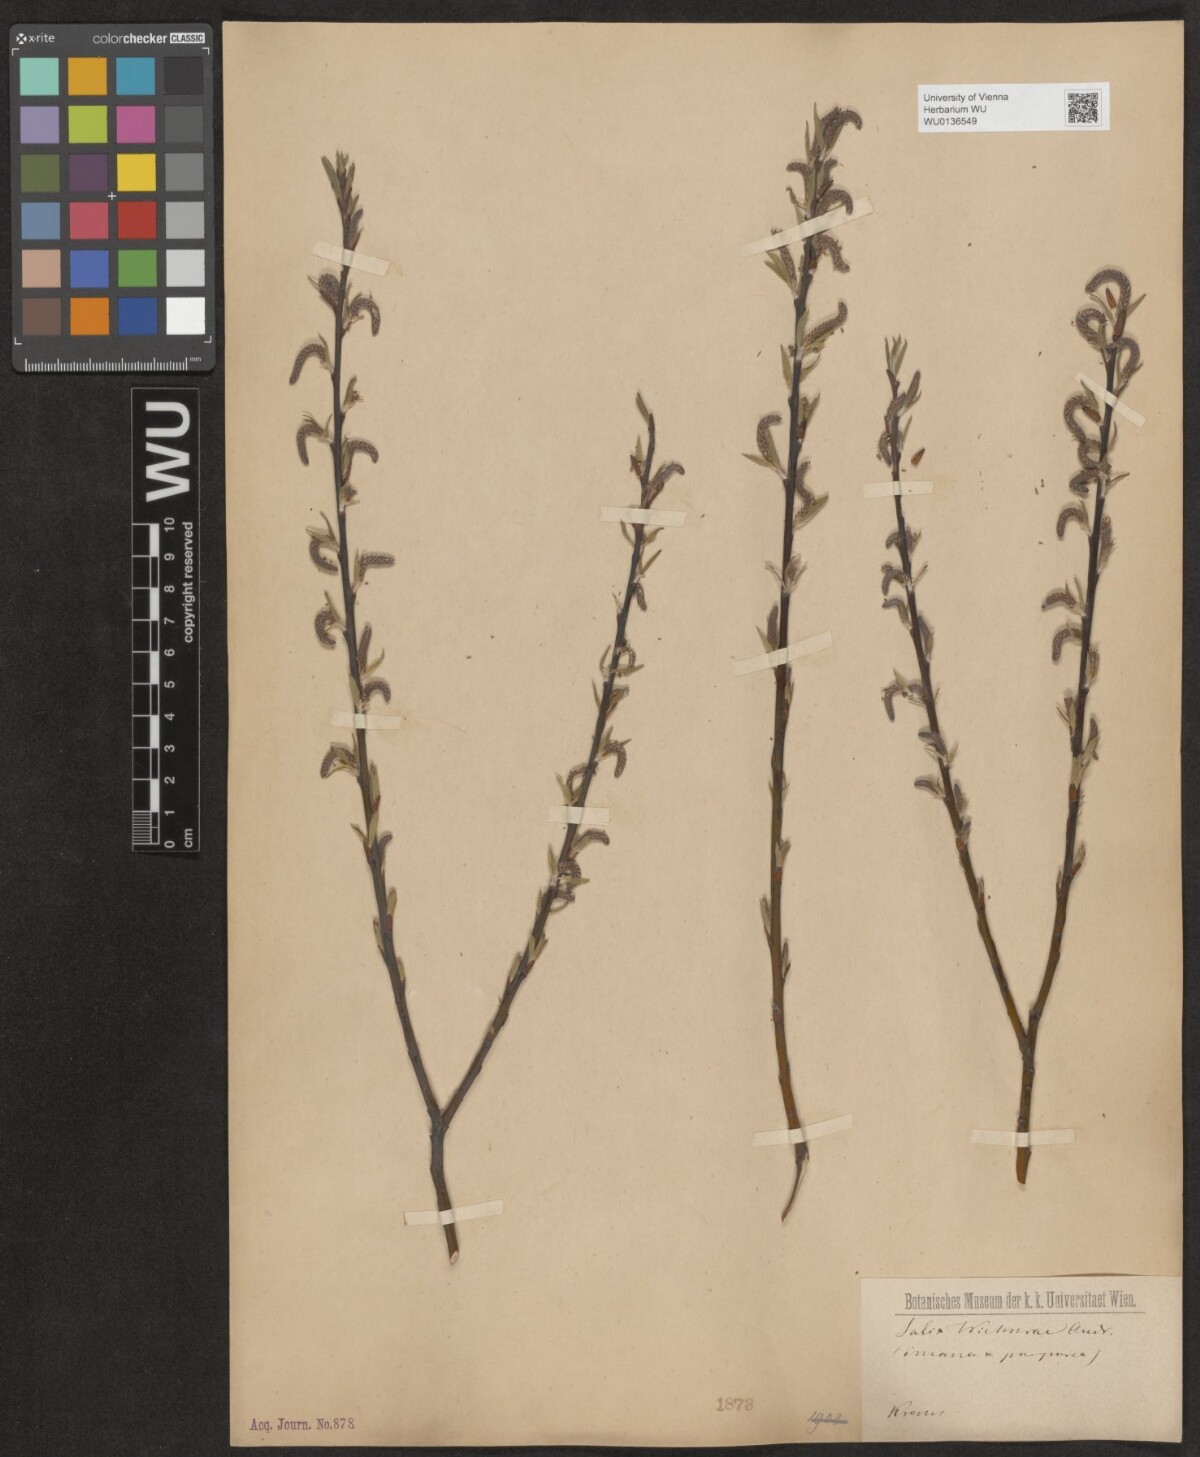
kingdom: Plantae
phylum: Tracheophyta
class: Magnoliopsida
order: Malpighiales
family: Salicaceae
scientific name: Salicaceae
